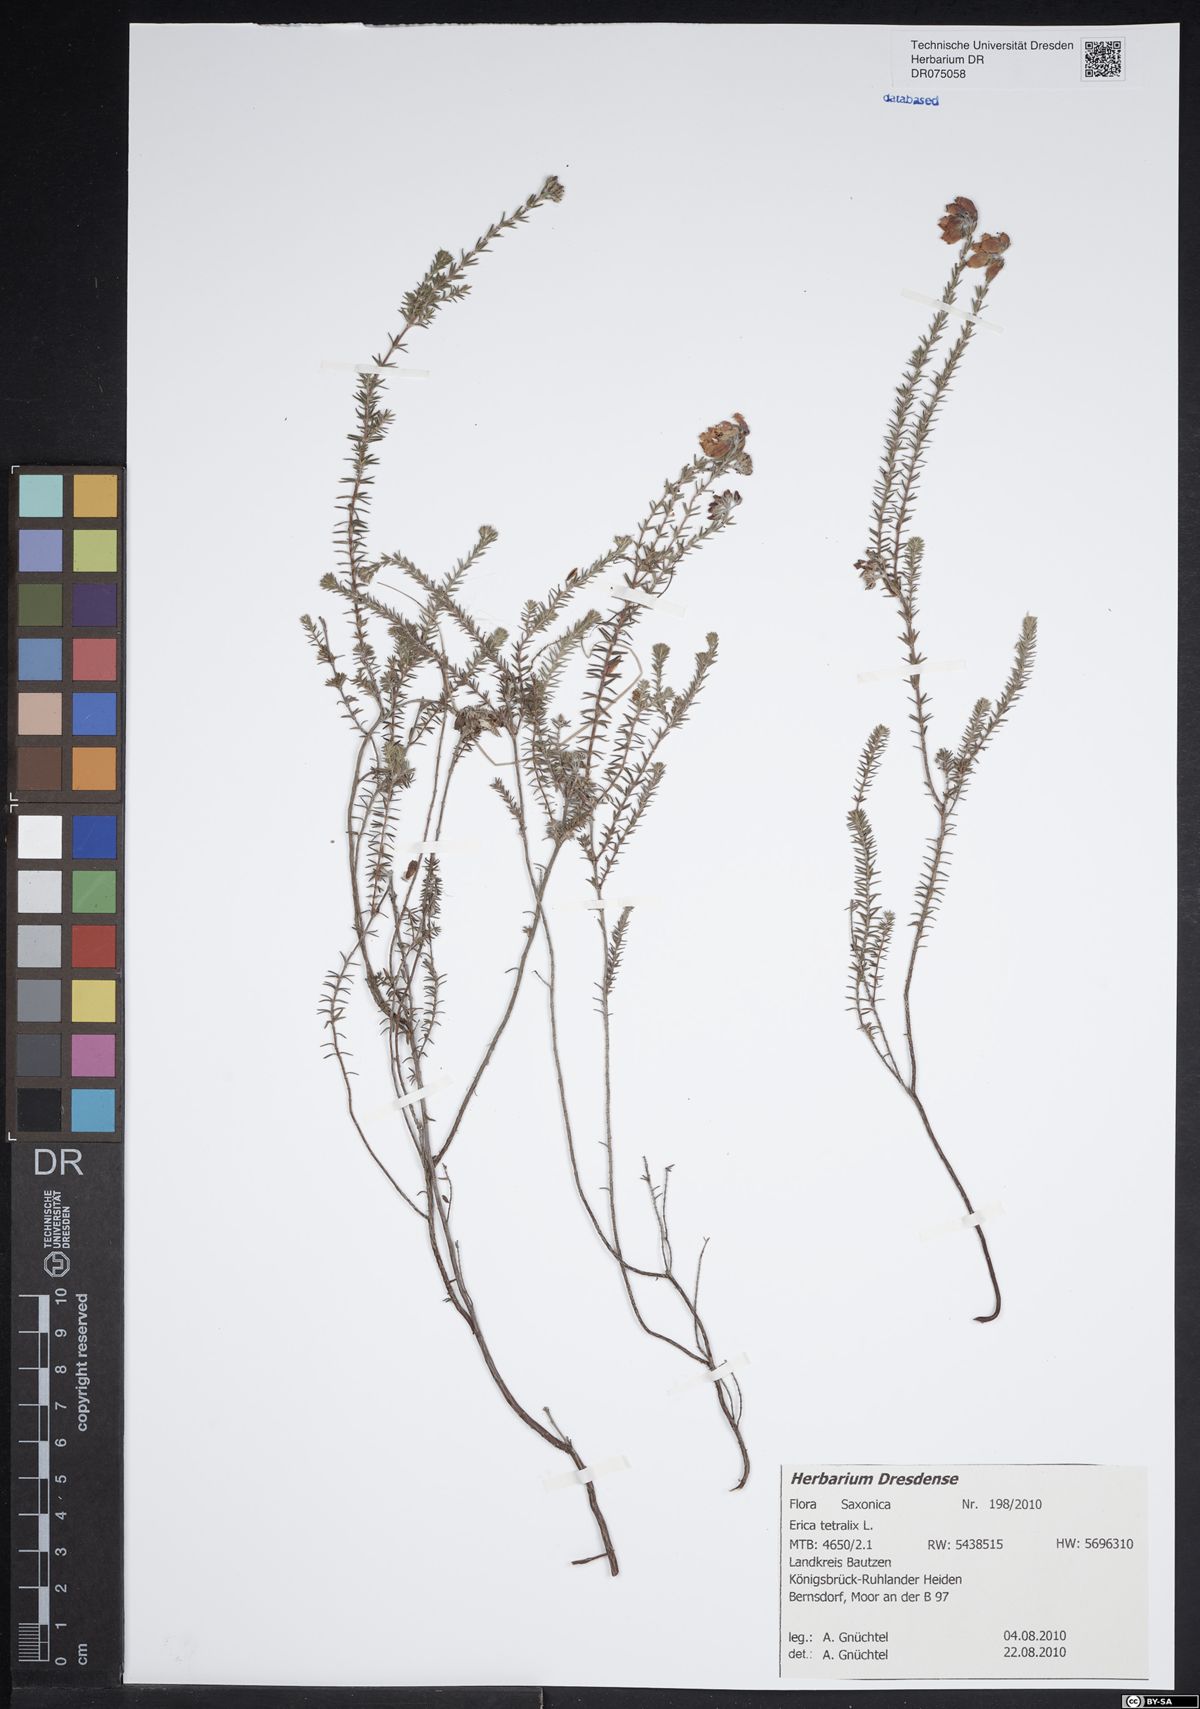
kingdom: Plantae
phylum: Tracheophyta
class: Magnoliopsida
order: Ericales
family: Ericaceae
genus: Erica
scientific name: Erica tetralix
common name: Cross-leaved heath
